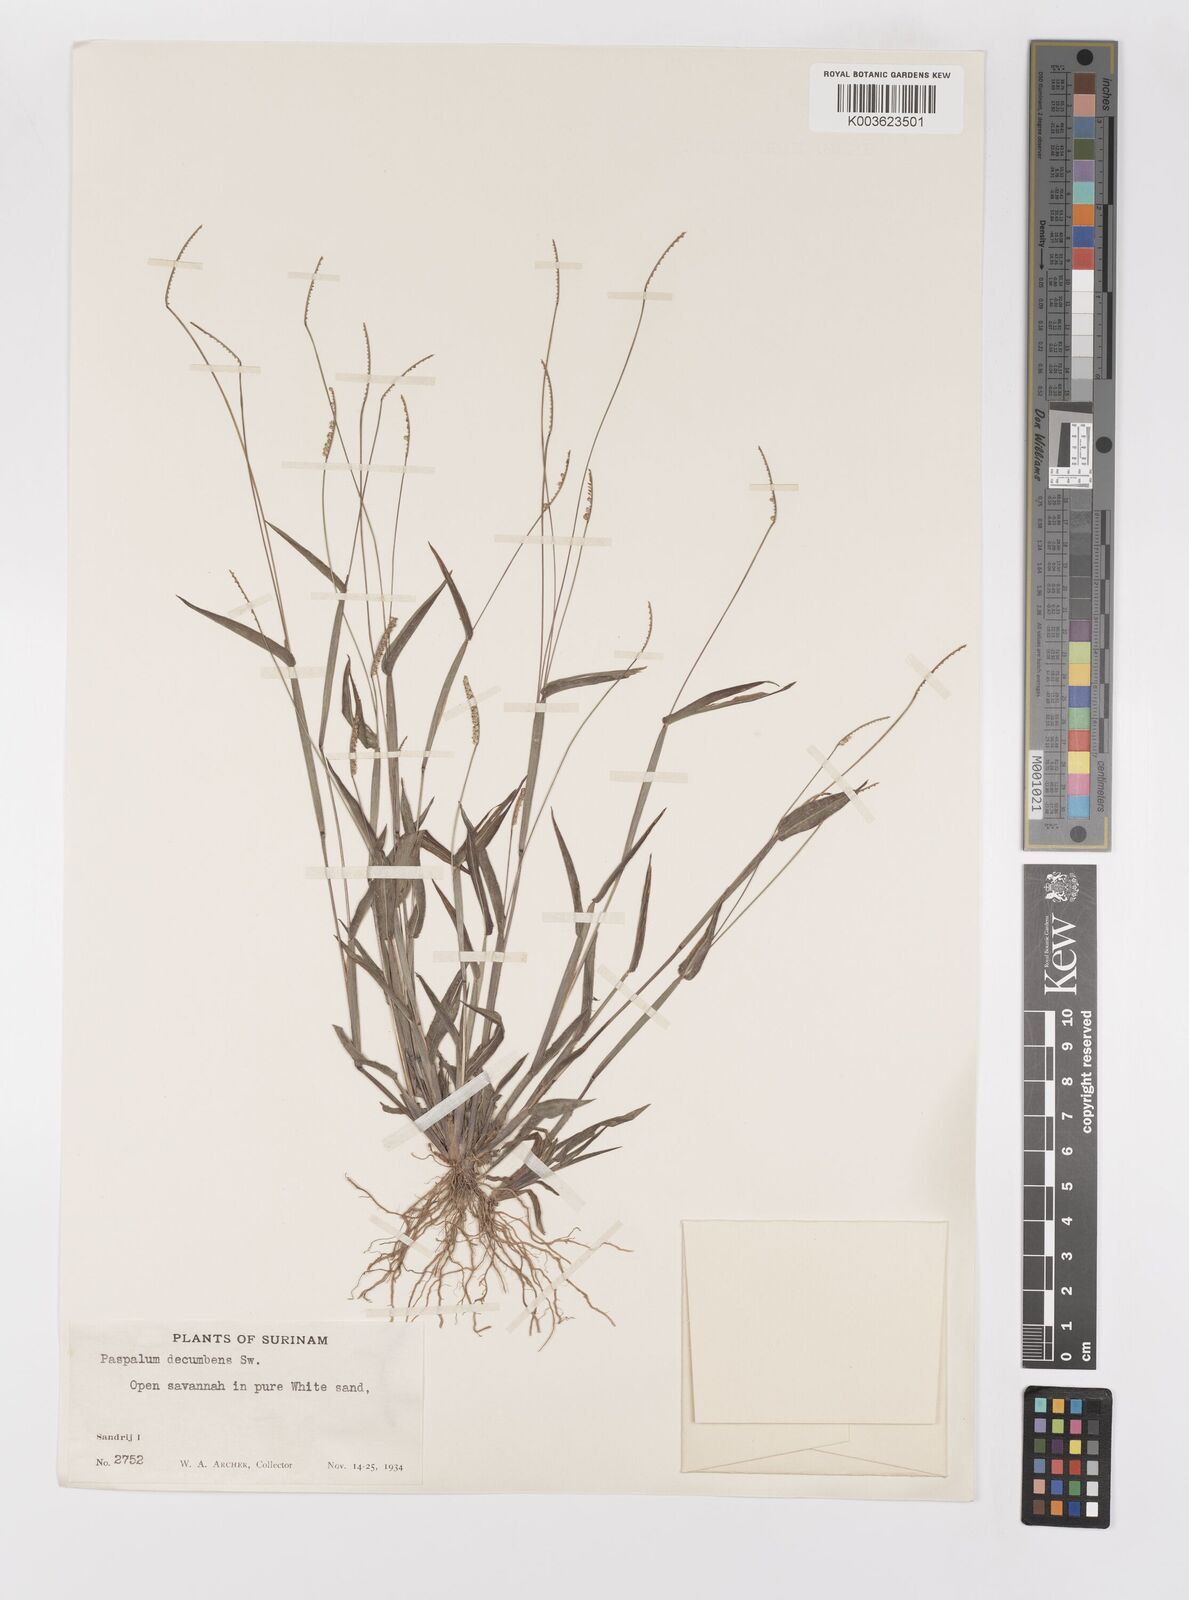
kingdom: Plantae
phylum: Tracheophyta
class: Liliopsida
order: Poales
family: Poaceae
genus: Paspalum
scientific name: Paspalum decumbens
